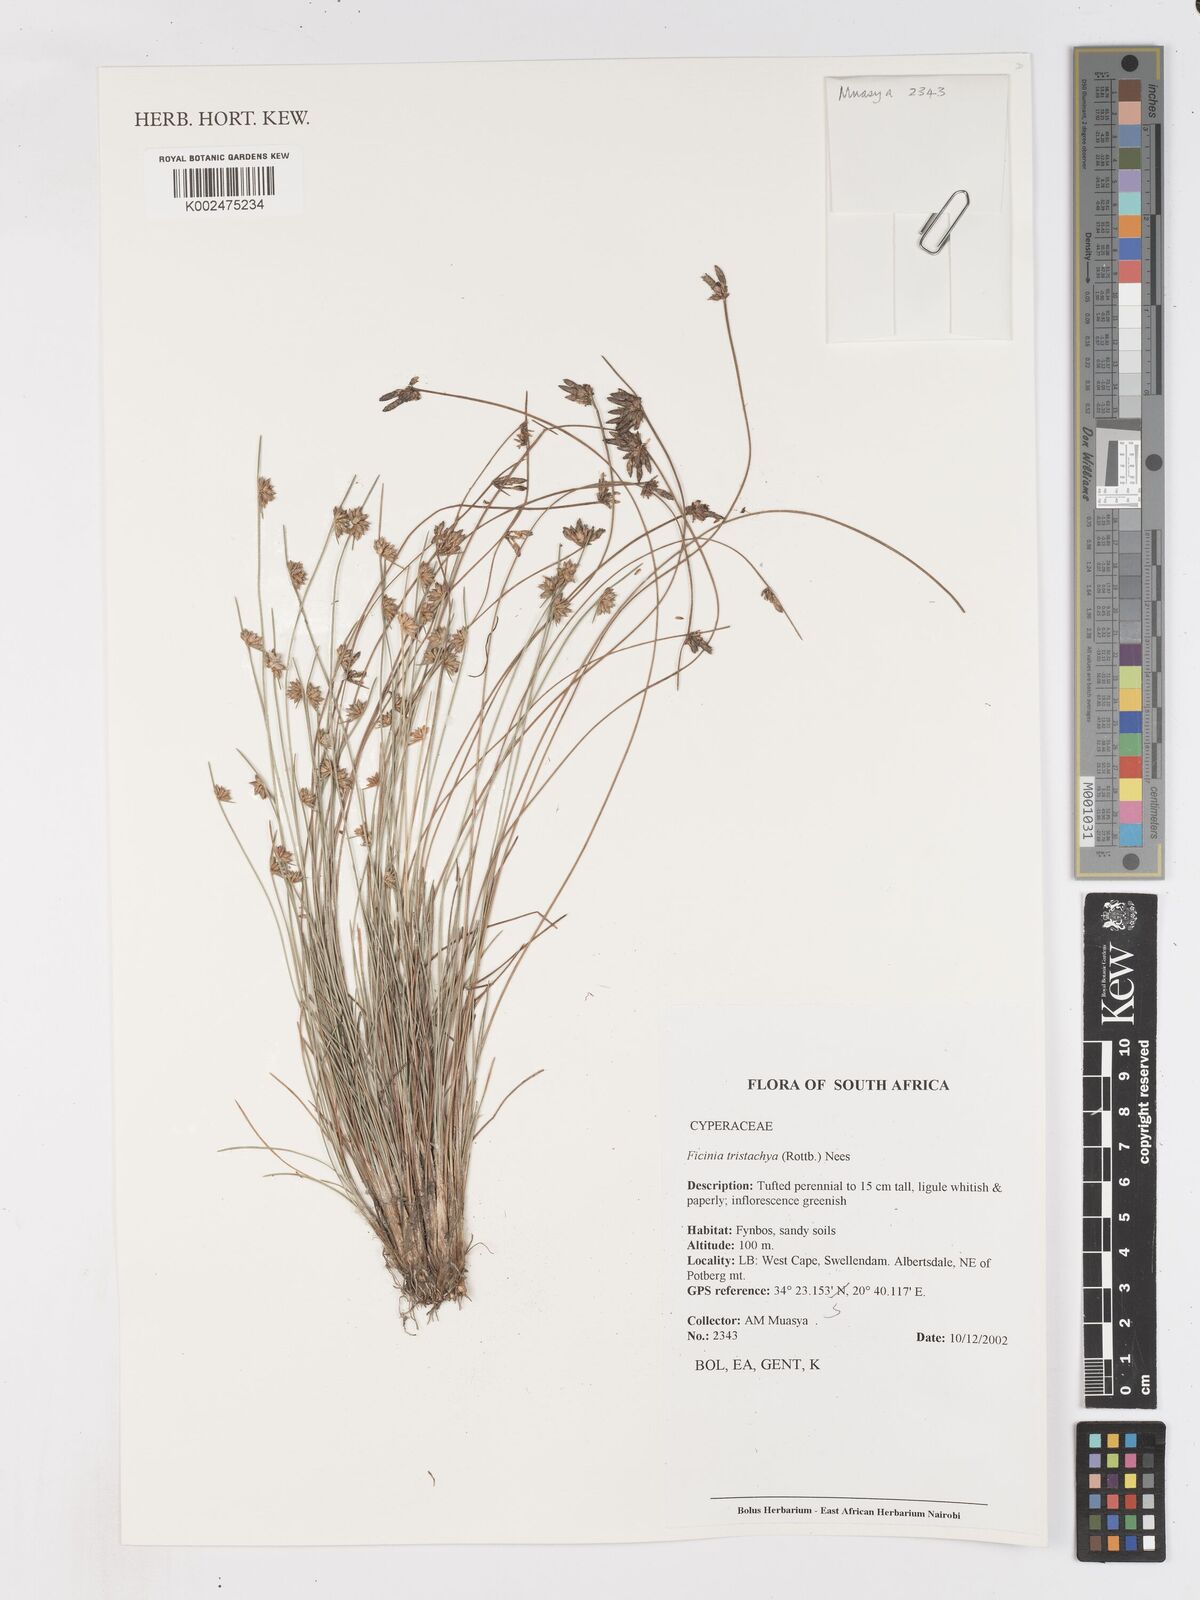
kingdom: Plantae
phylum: Tracheophyta
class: Liliopsida
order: Poales
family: Cyperaceae
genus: Ficinia
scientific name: Ficinia tristachya
